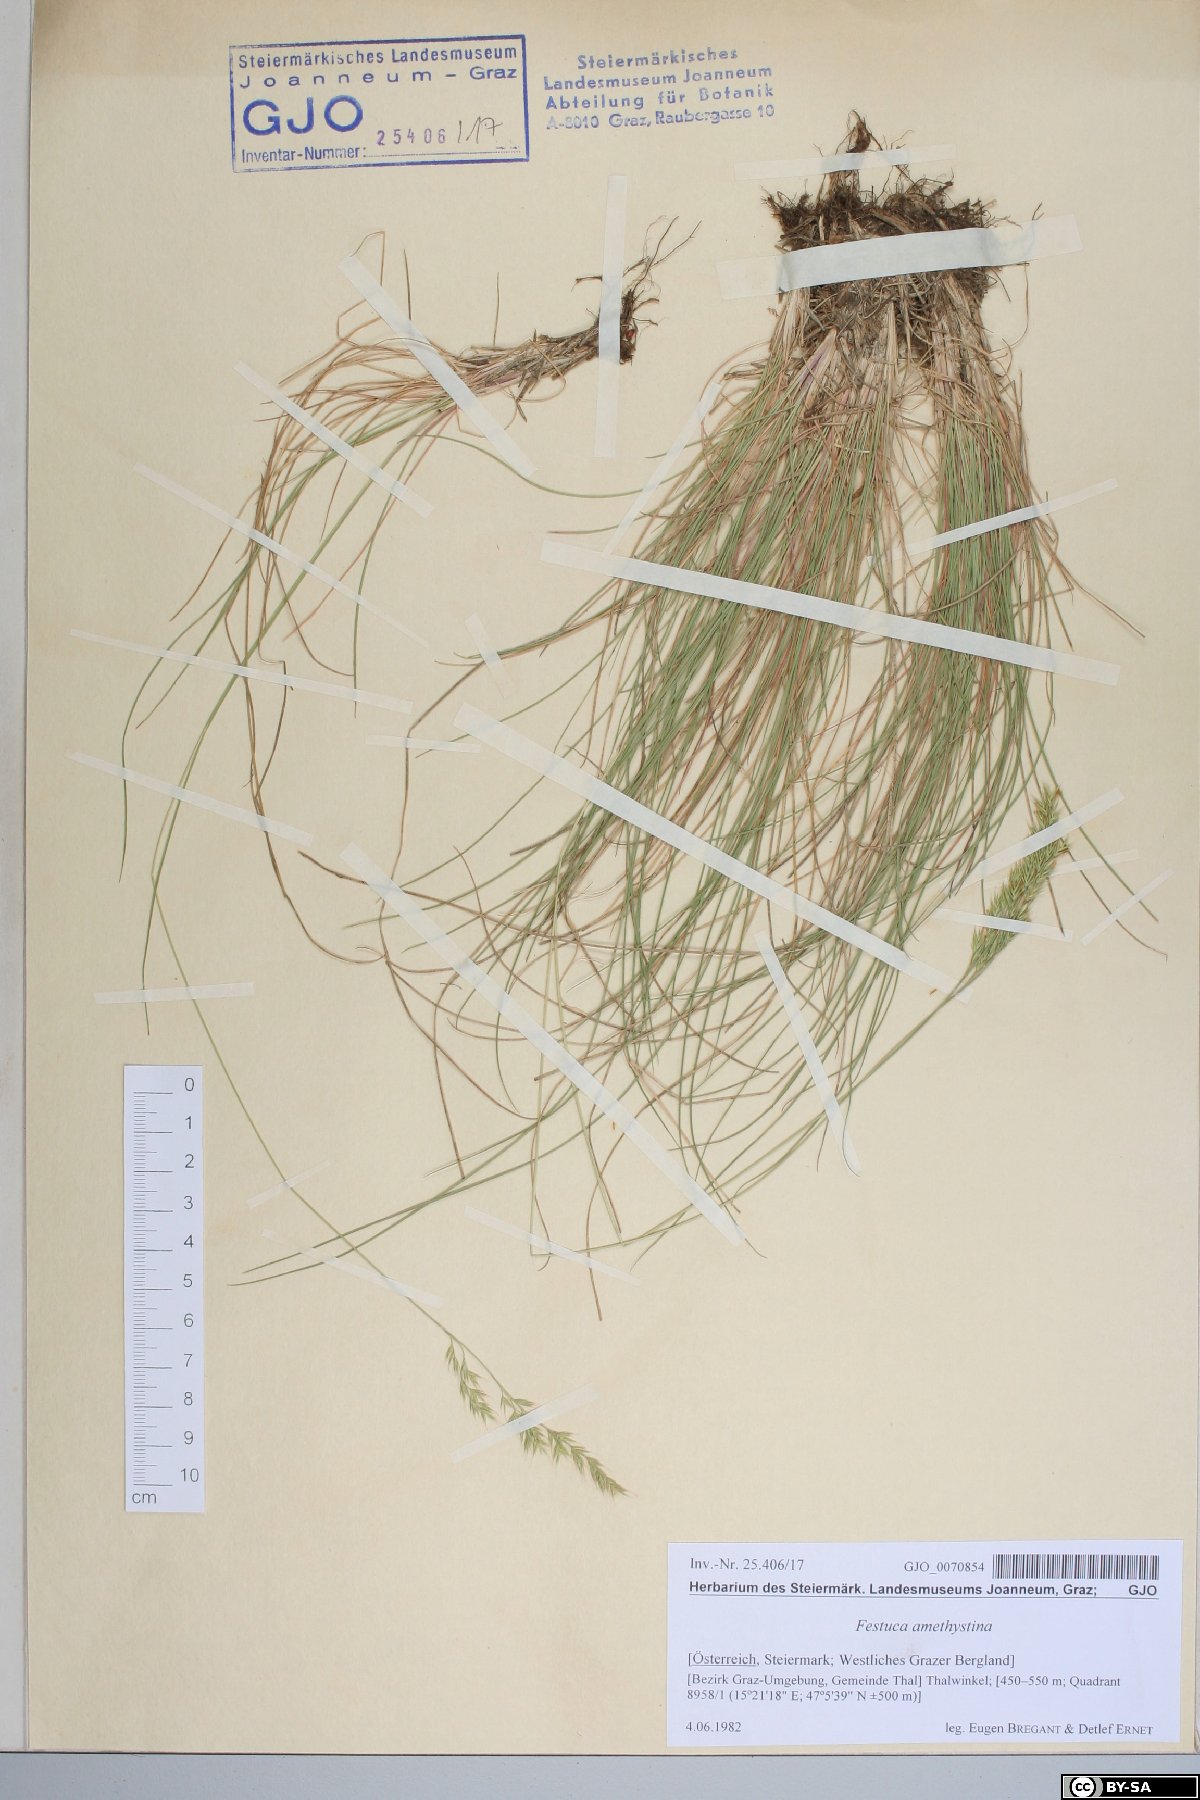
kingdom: Plantae
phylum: Tracheophyta
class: Liliopsida
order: Poales
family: Poaceae
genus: Festuca
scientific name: Festuca amethystina
